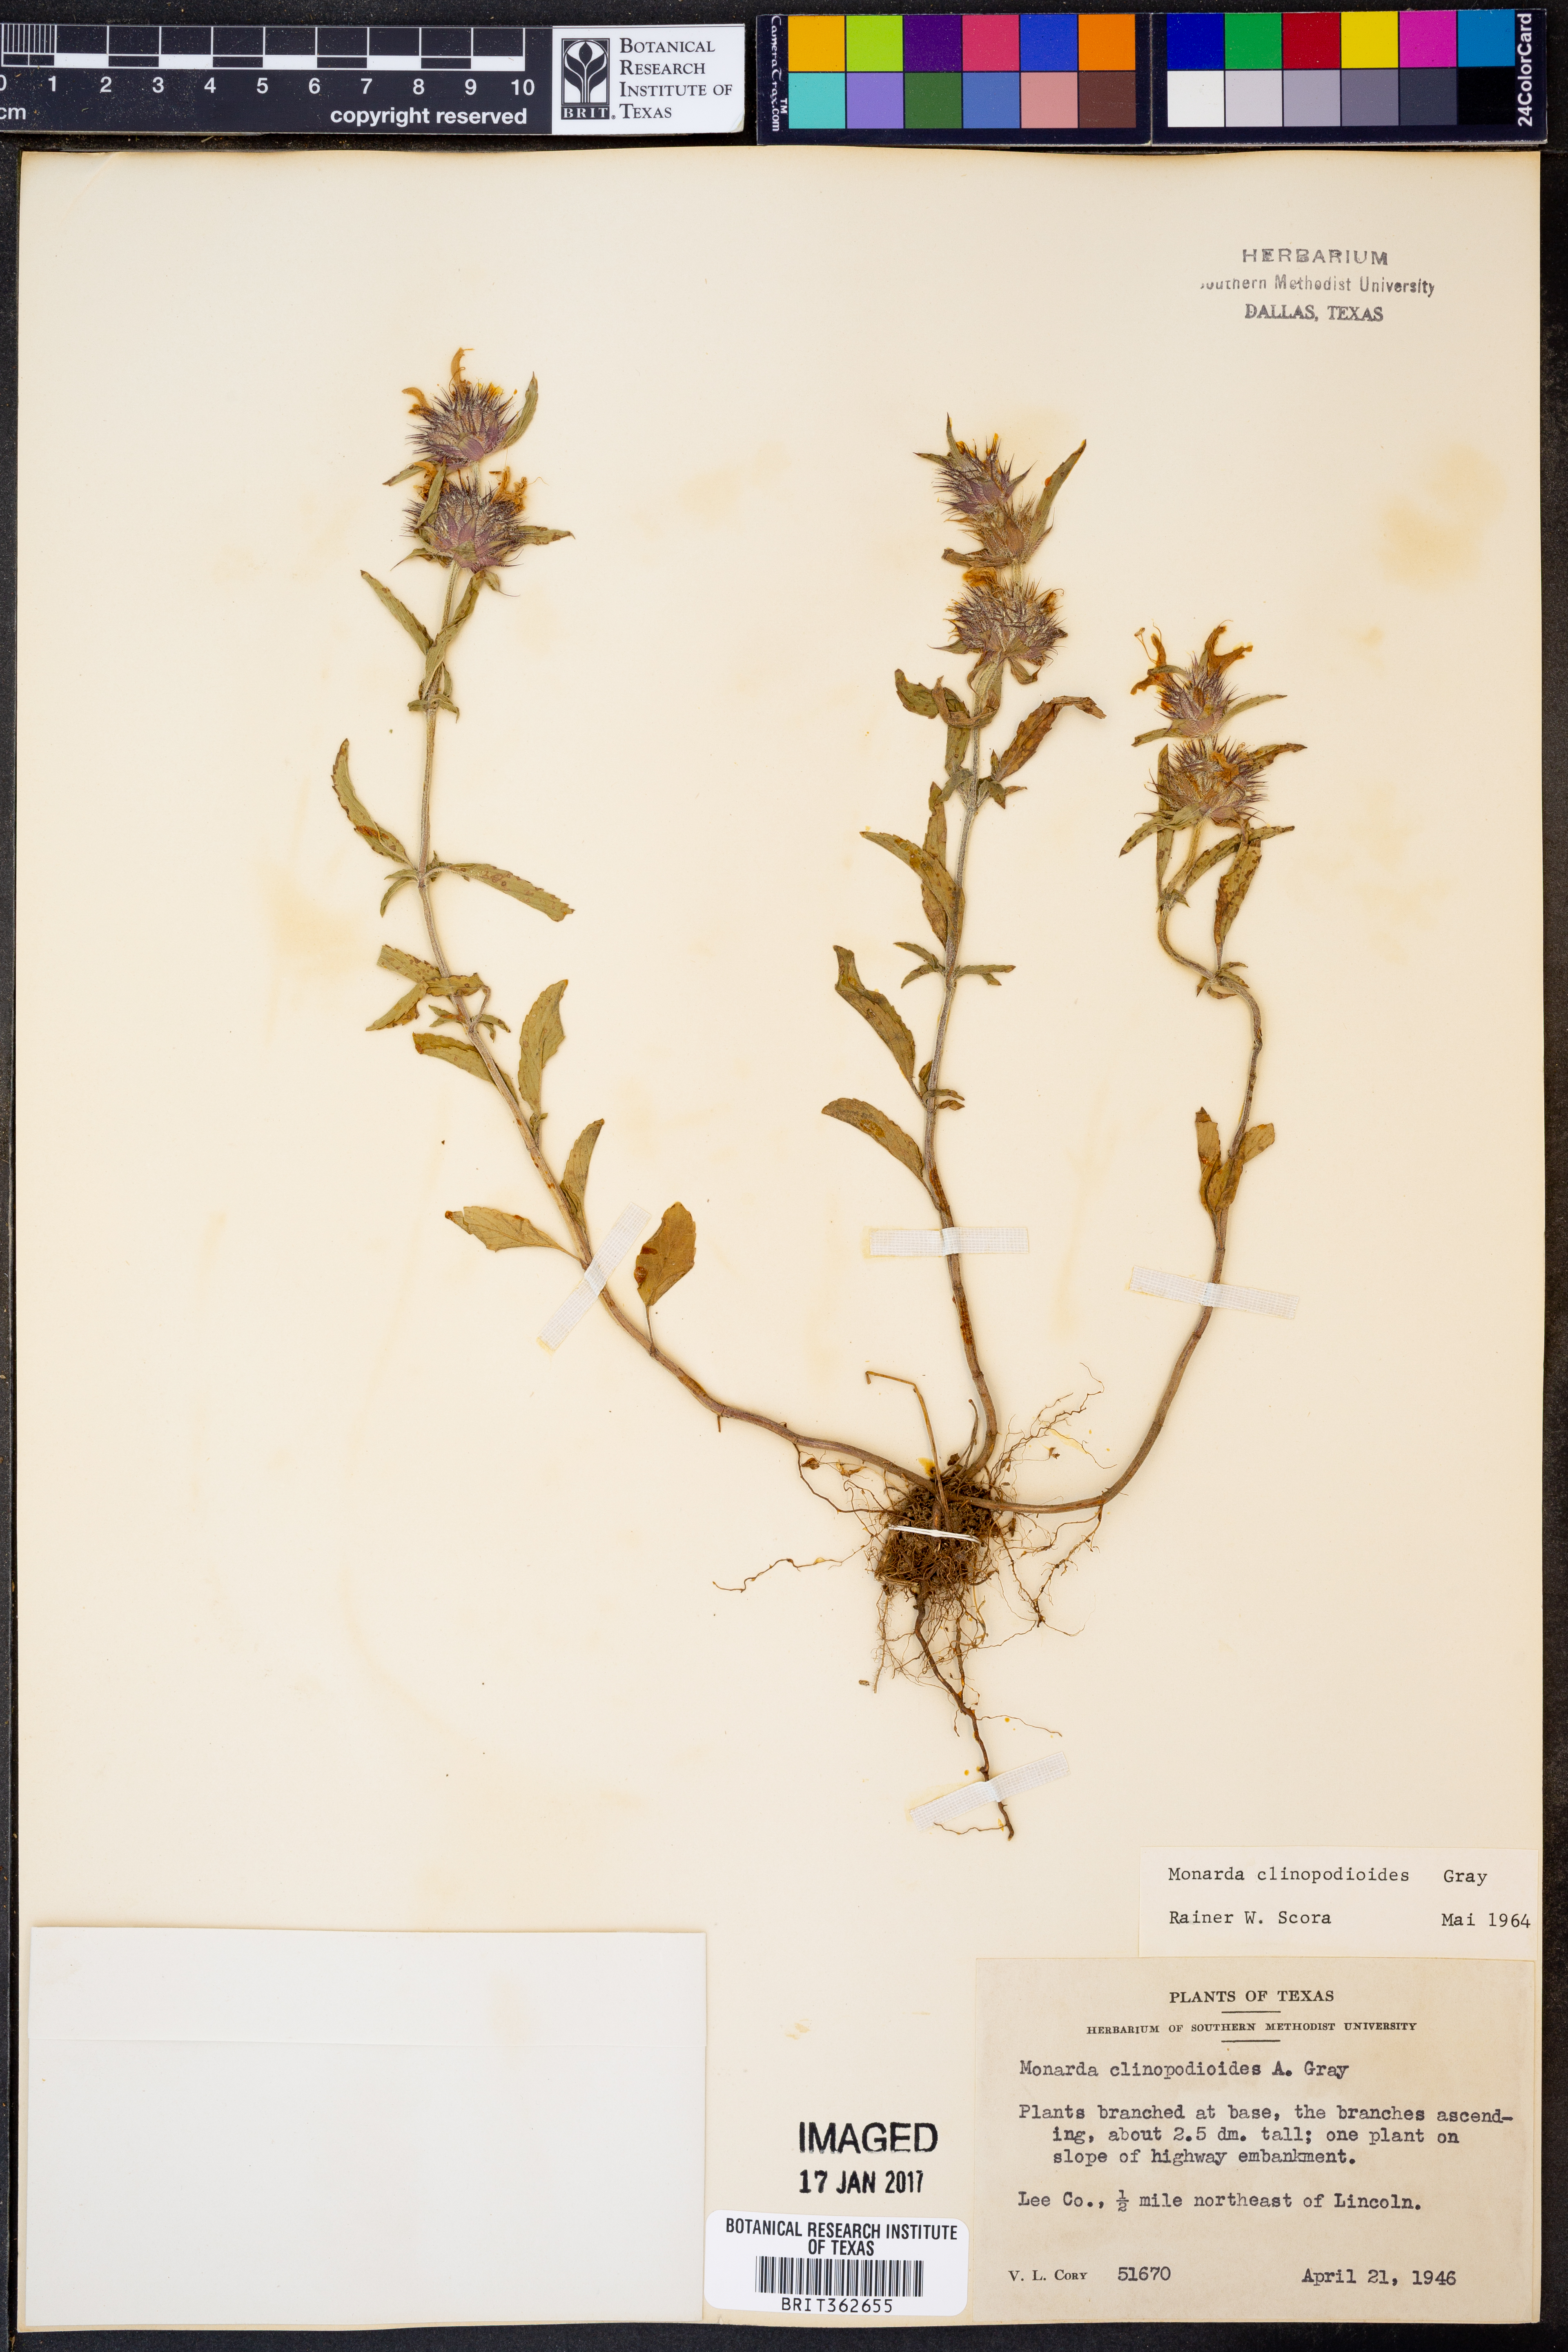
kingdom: Plantae
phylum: Tracheophyta
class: Magnoliopsida
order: Lamiales
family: Lamiaceae
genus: Monarda
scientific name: Monarda clinopodioides
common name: Basil beebalm
